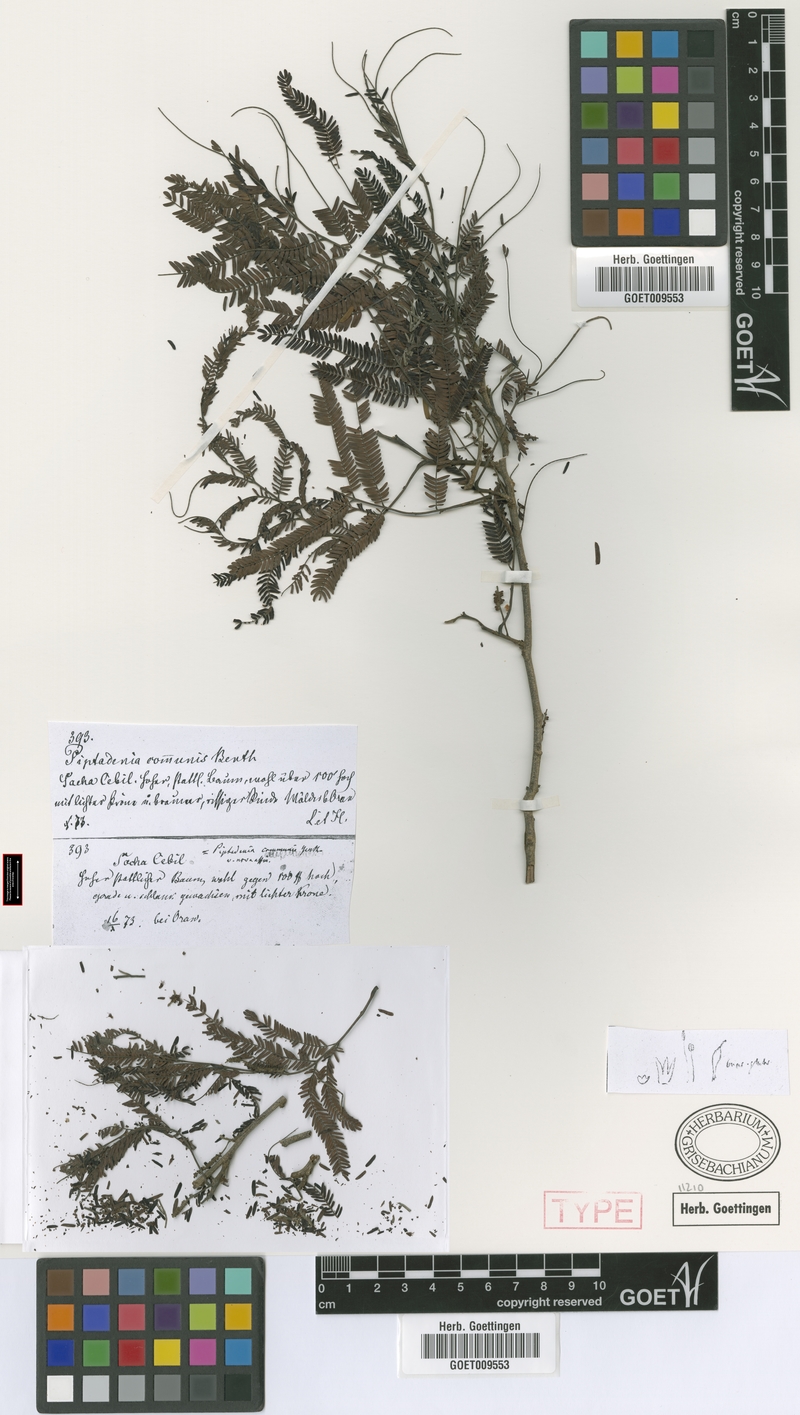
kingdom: Plantae
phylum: Tracheophyta
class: Magnoliopsida
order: Fabales
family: Fabaceae
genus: Parapiptadenia
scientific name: Parapiptadenia excelsa
